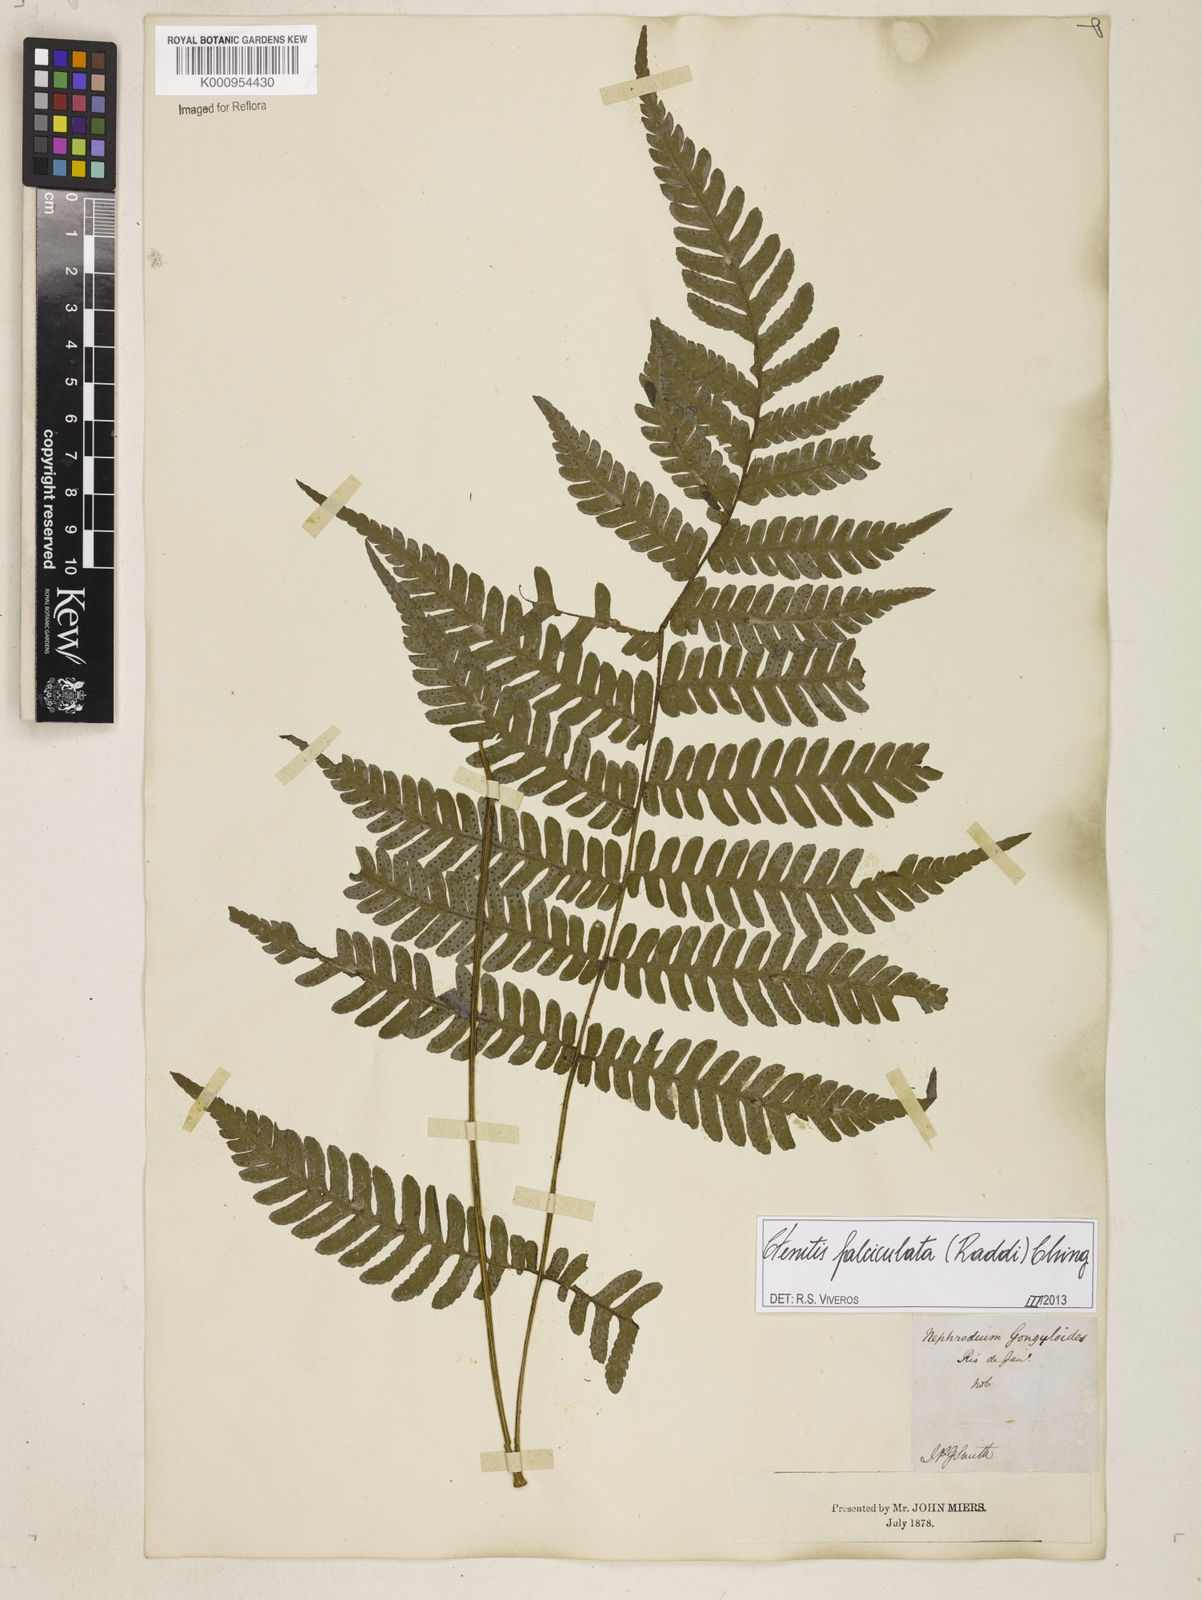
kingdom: Plantae
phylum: Tracheophyta
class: Polypodiopsida
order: Polypodiales
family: Dryopteridaceae
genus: Ctenitis
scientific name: Ctenitis falciculata
